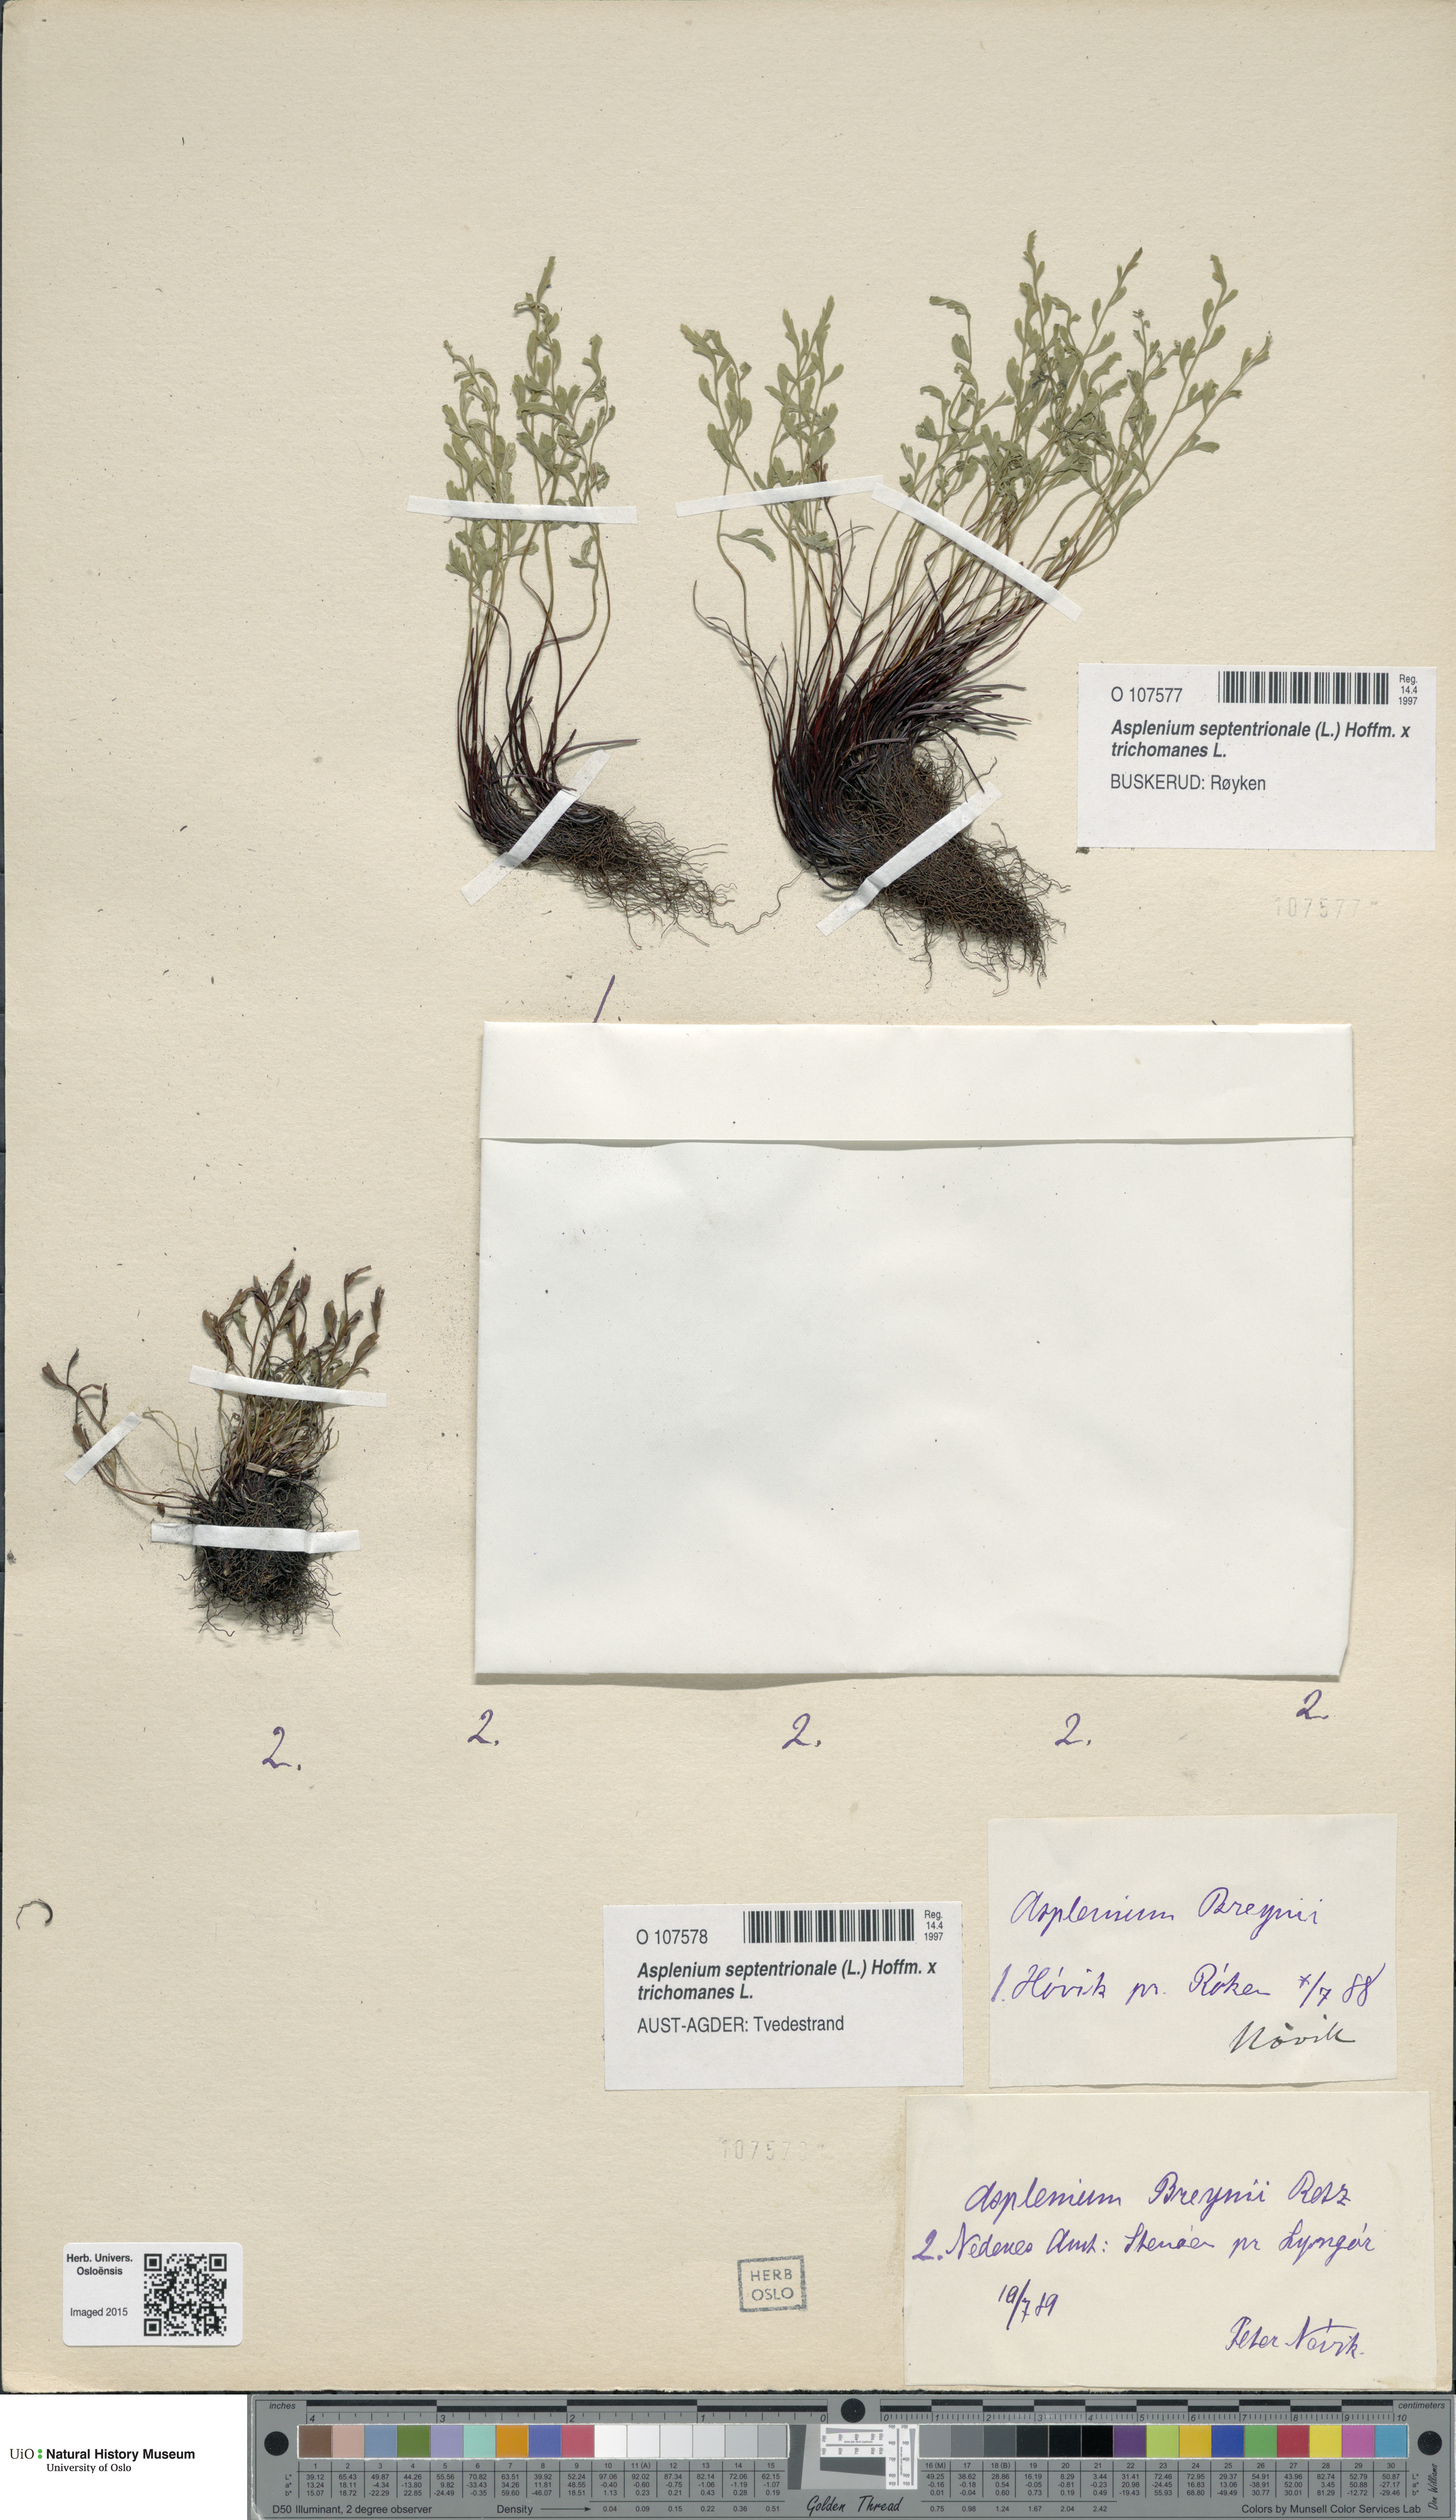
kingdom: Plantae
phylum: Tracheophyta
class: Polypodiopsida
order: Polypodiales
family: Aspleniaceae
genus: Asplenium
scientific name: Asplenium
